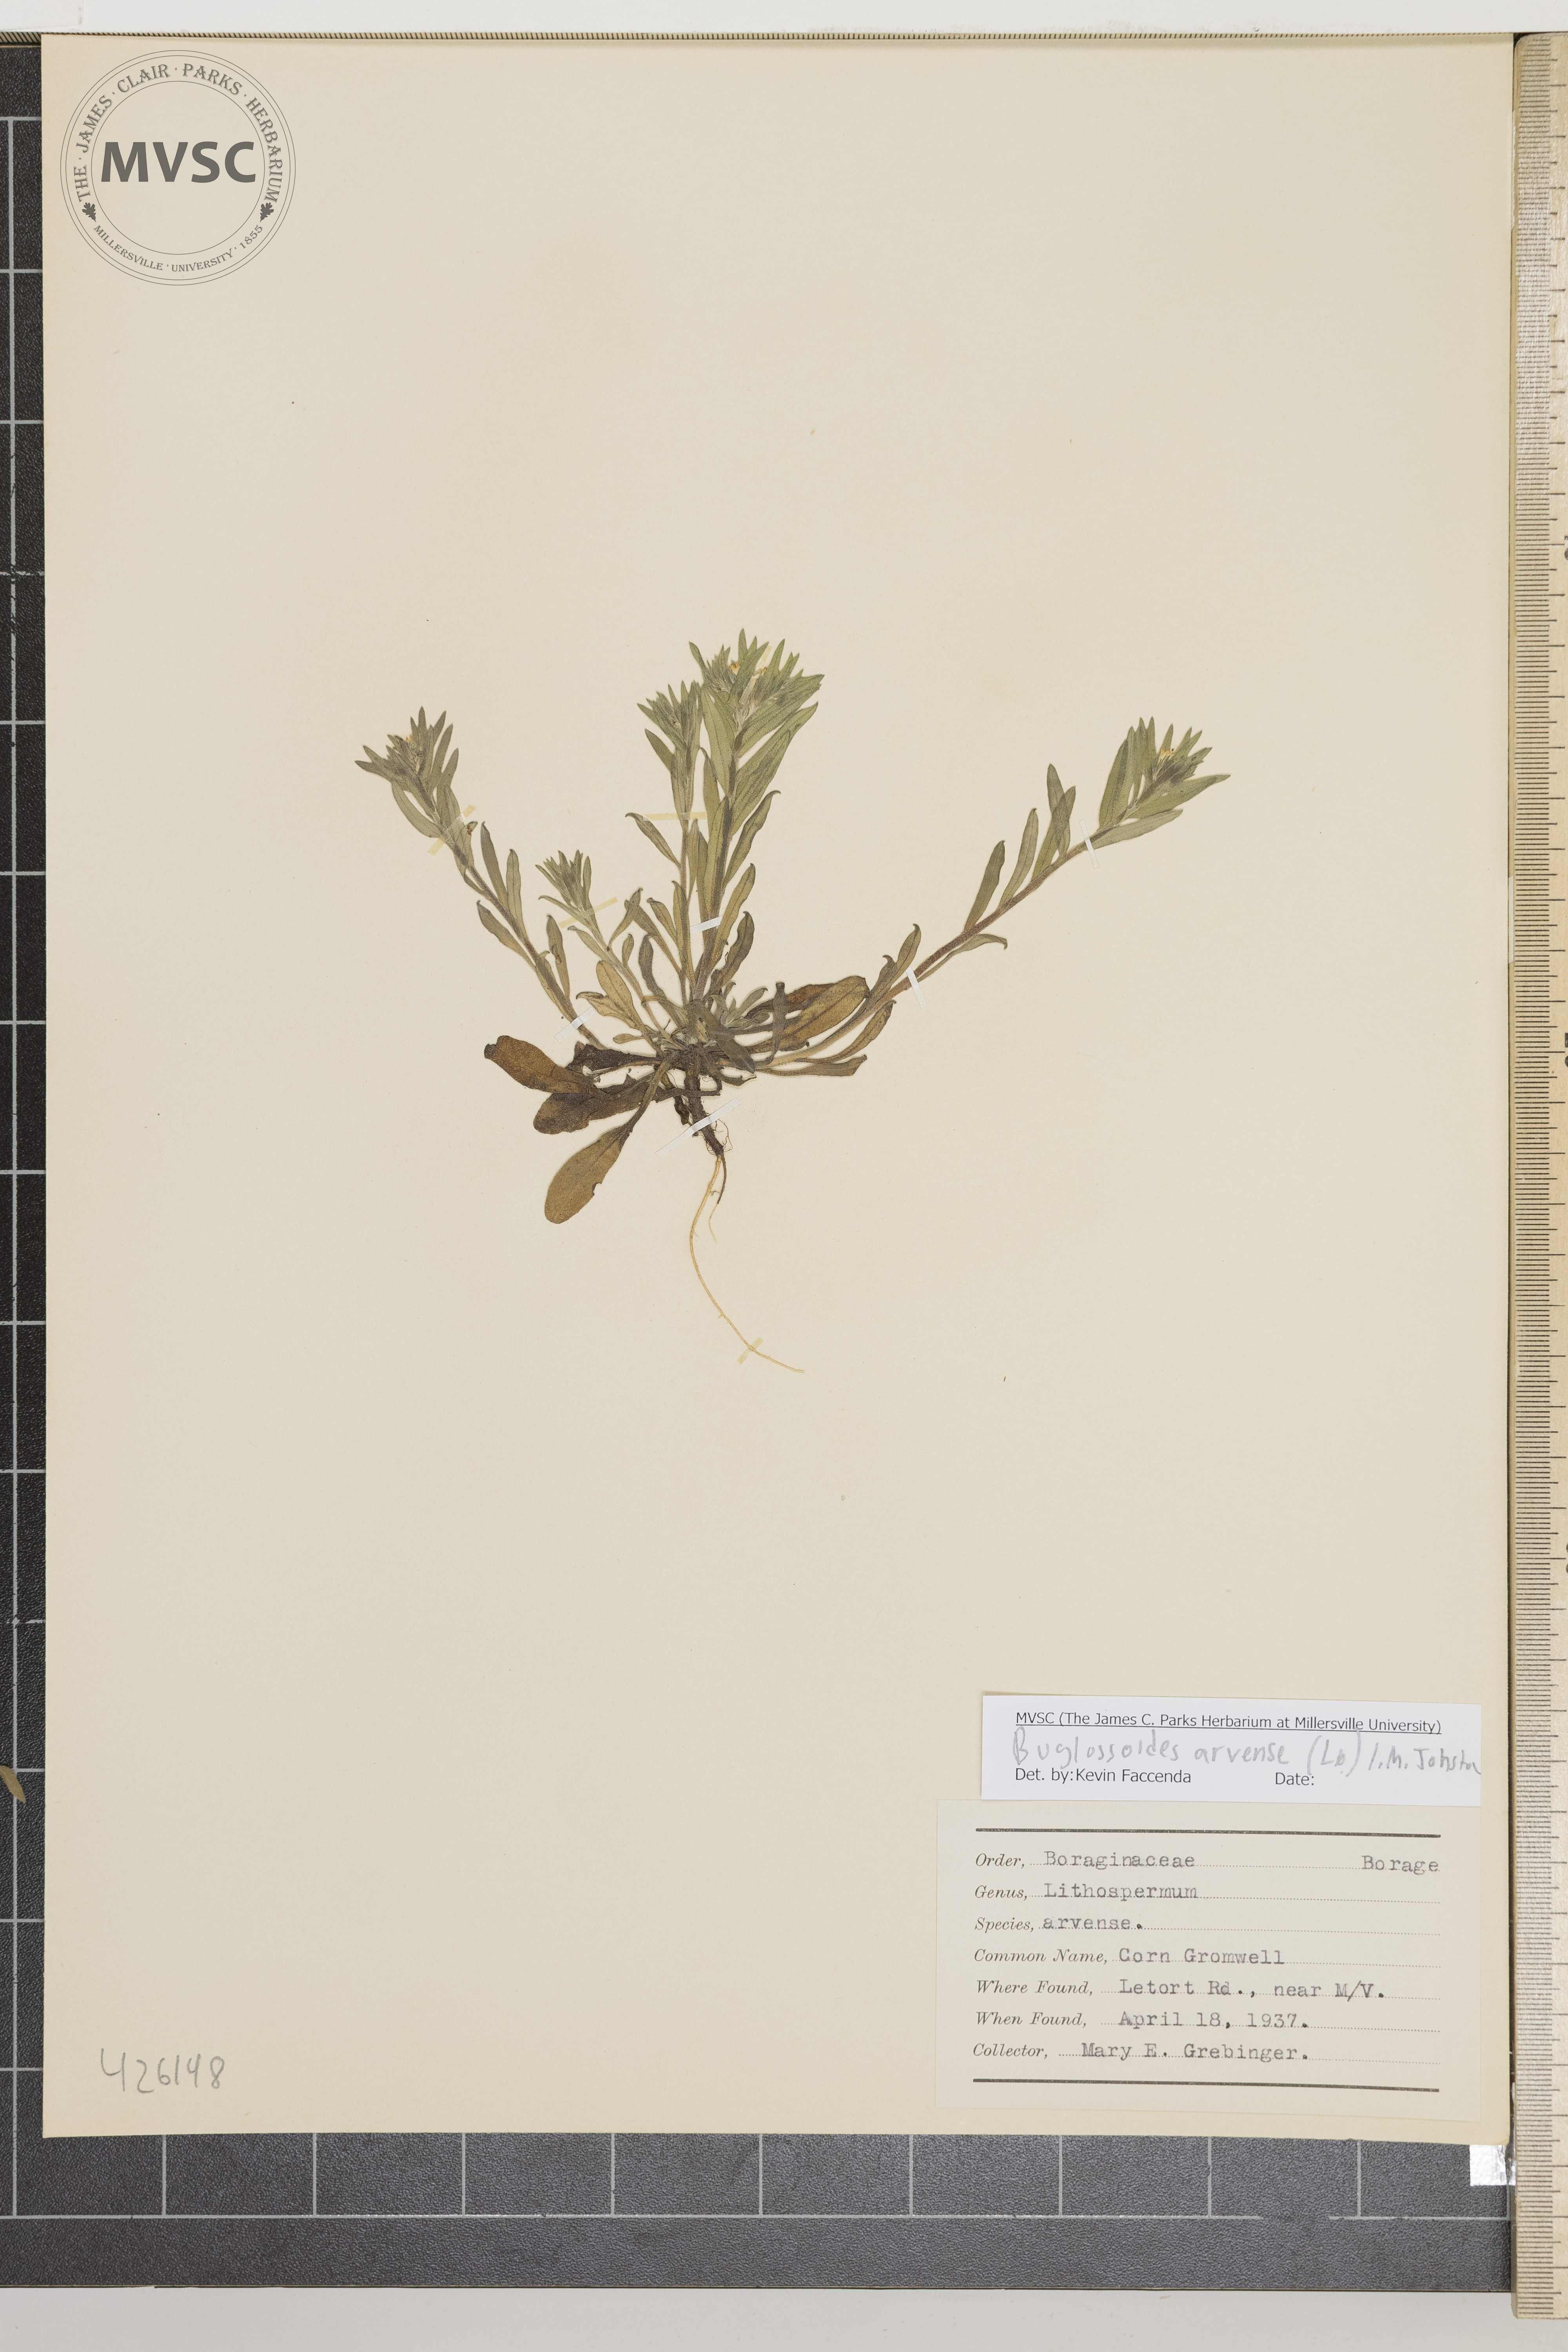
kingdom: Plantae
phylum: Tracheophyta
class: Magnoliopsida
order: Boraginales
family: Boraginaceae
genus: Buglossoides
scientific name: Buglossoides arvensis
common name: Corn gromwell
